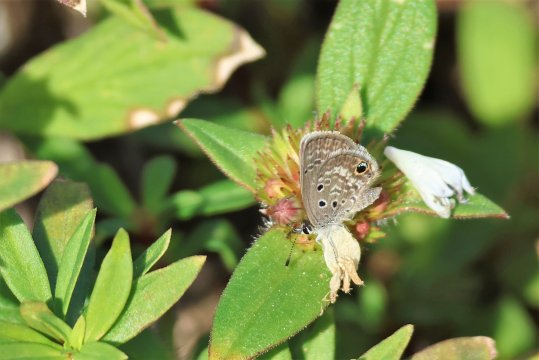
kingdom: Animalia
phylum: Arthropoda
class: Insecta
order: Lepidoptera
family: Lycaenidae
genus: Hemiargus
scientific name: Hemiargus ceraunus
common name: Ceraunus Blue
